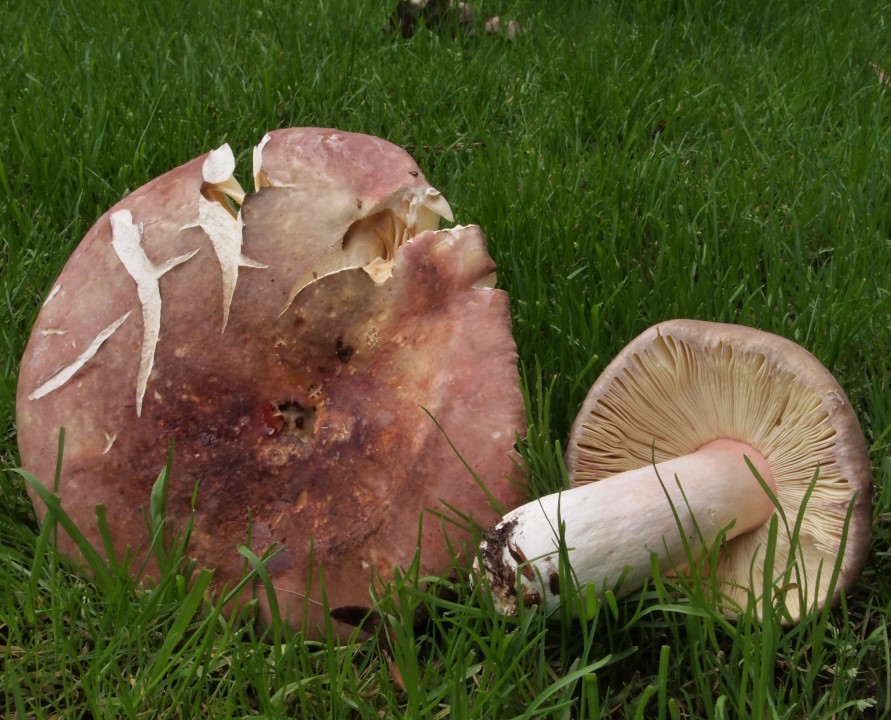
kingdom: Fungi
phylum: Basidiomycota
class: Agaricomycetes
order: Russulales
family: Russulaceae
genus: Russula
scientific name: Russula olivacea
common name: stor skørhat
